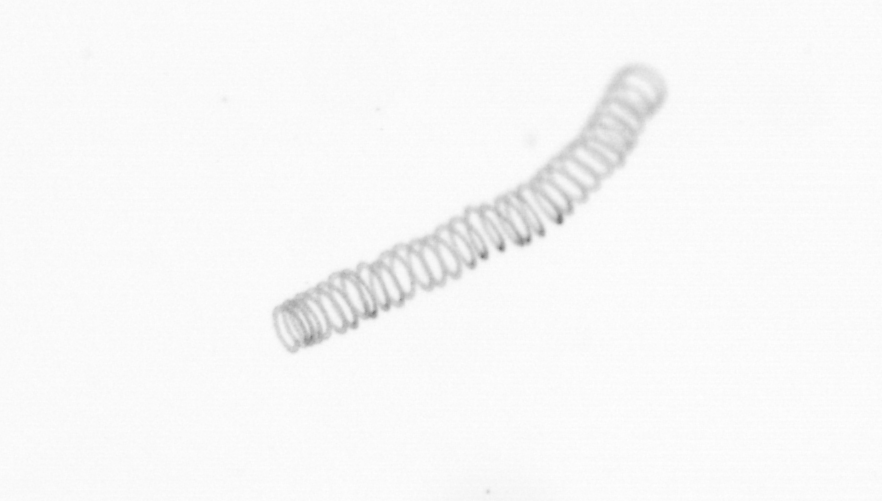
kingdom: Chromista
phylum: Ochrophyta
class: Bacillariophyceae
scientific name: Bacillariophyceae
